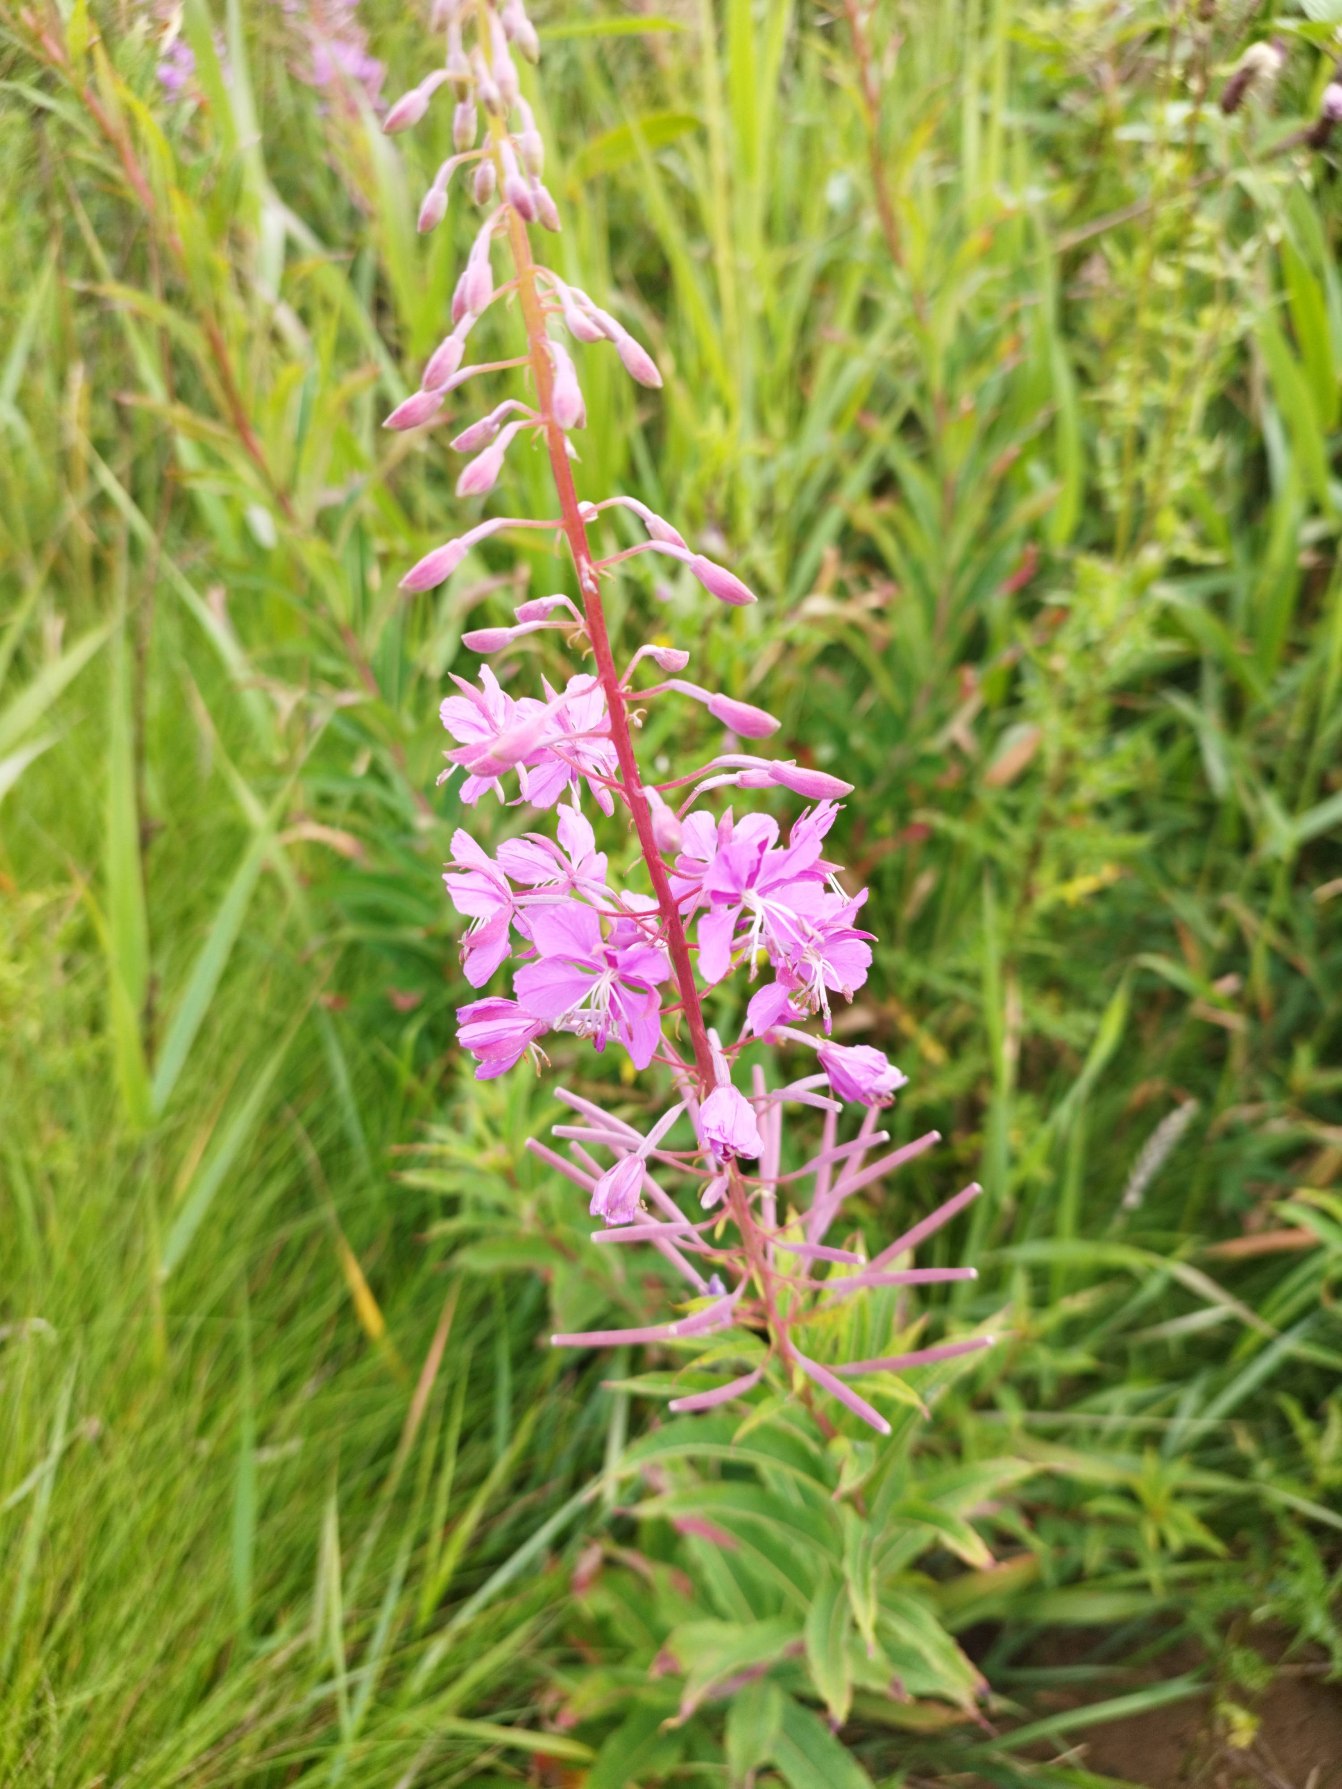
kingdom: Plantae
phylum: Tracheophyta
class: Magnoliopsida
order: Myrtales
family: Onagraceae
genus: Chamaenerion
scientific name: Chamaenerion angustifolium
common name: Gederams
